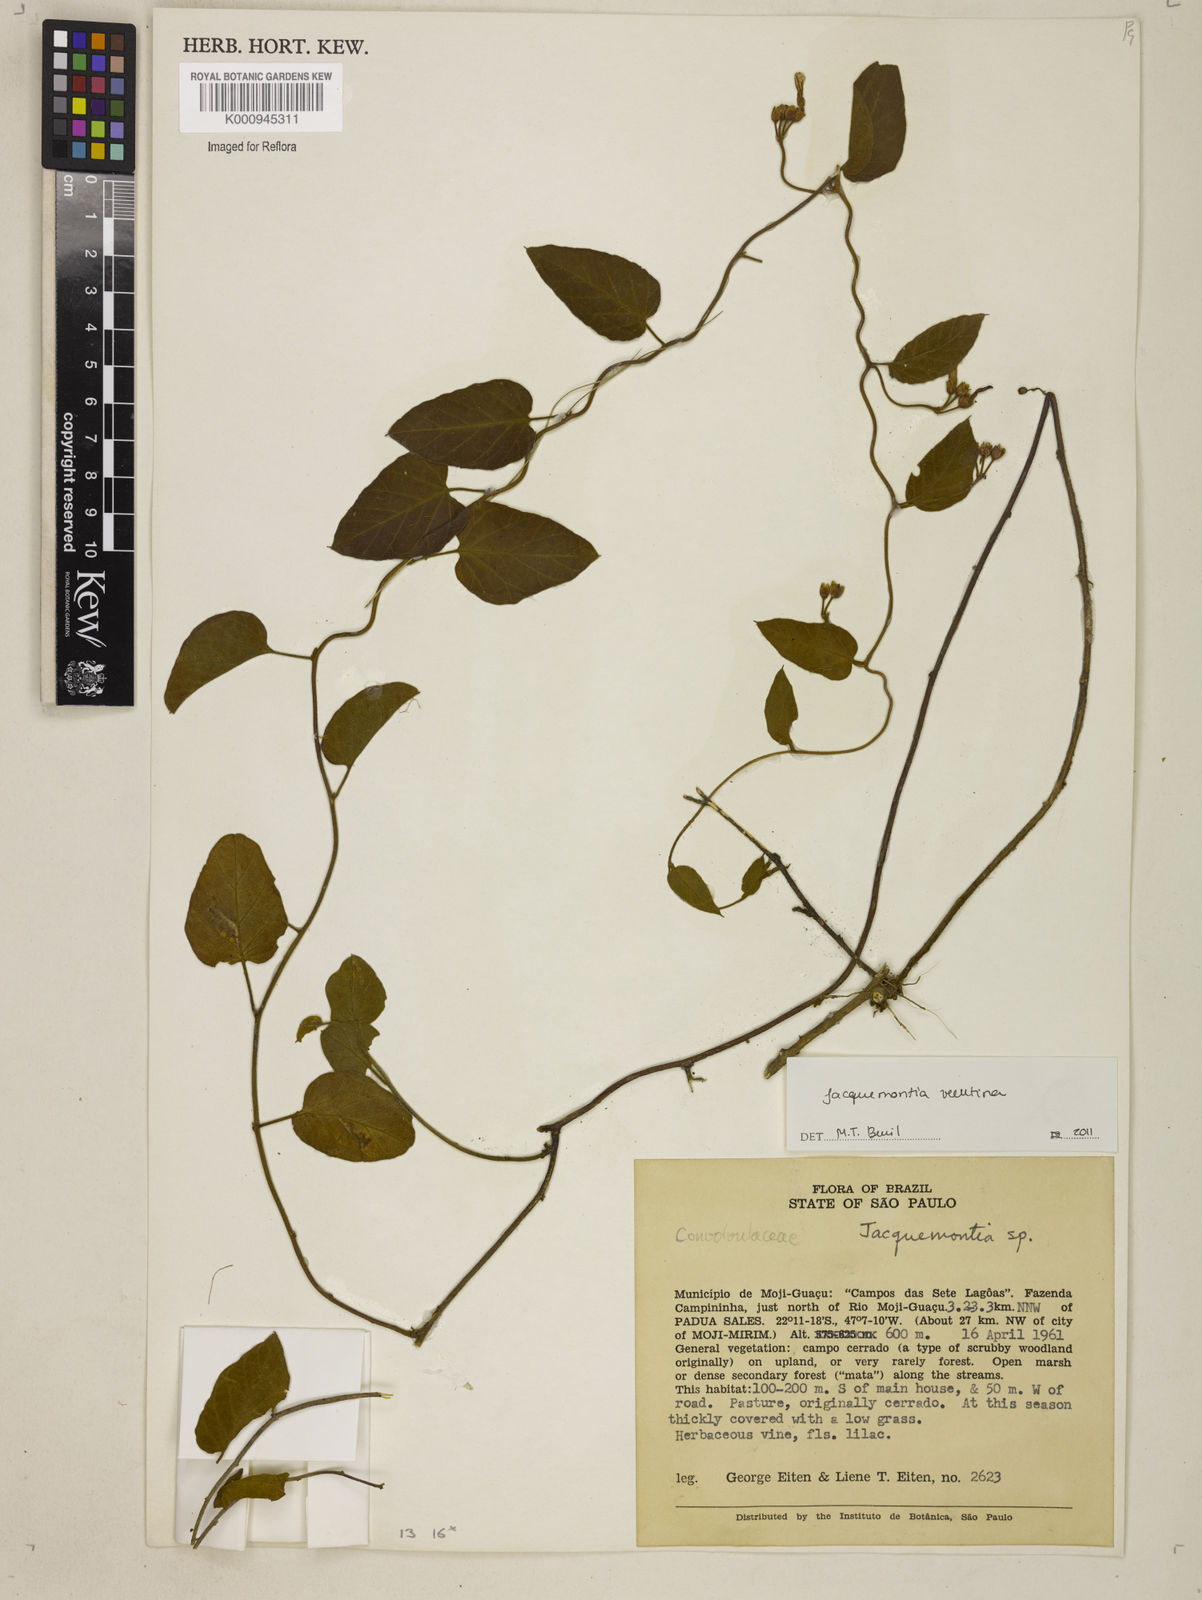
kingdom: Plantae
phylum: Tracheophyta
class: Magnoliopsida
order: Solanales
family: Convolvulaceae
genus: Jacquemontia
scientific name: Jacquemontia velutina
